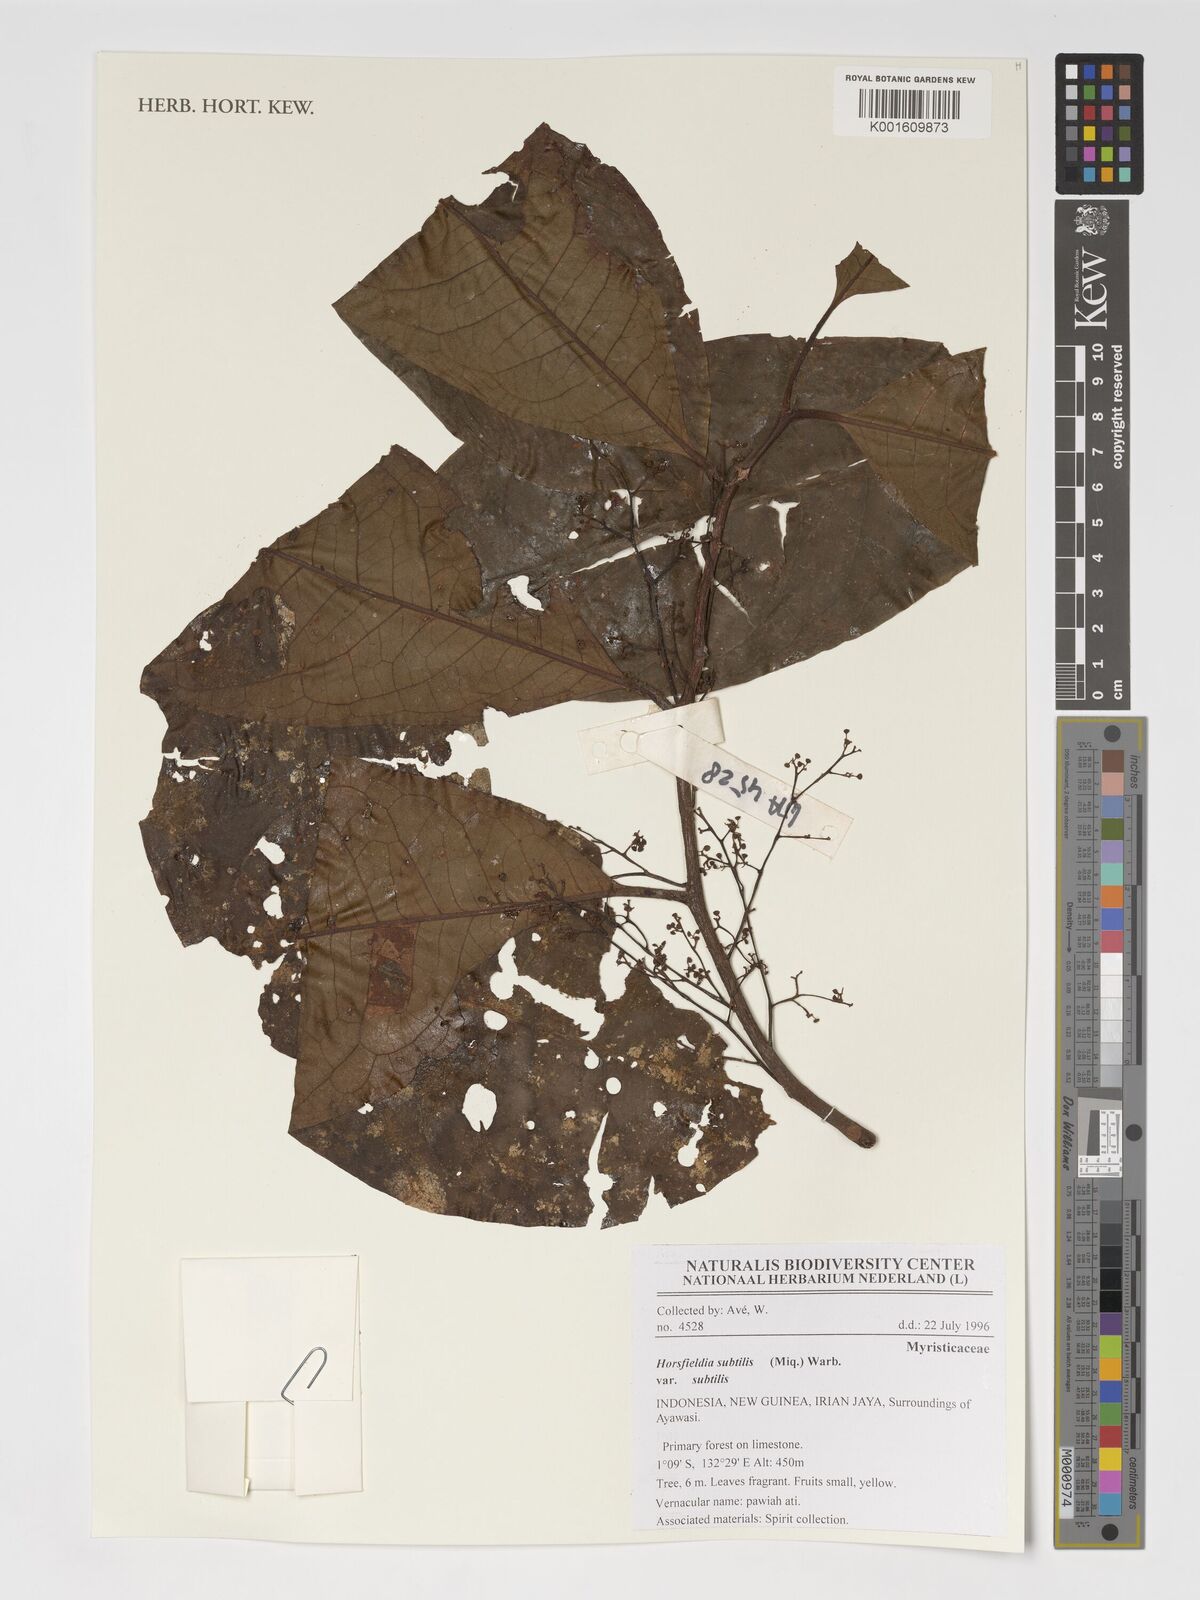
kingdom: Plantae
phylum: Tracheophyta
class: Magnoliopsida
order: Magnoliales
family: Myristicaceae
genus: Horsfieldia
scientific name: Horsfieldia subtilis
